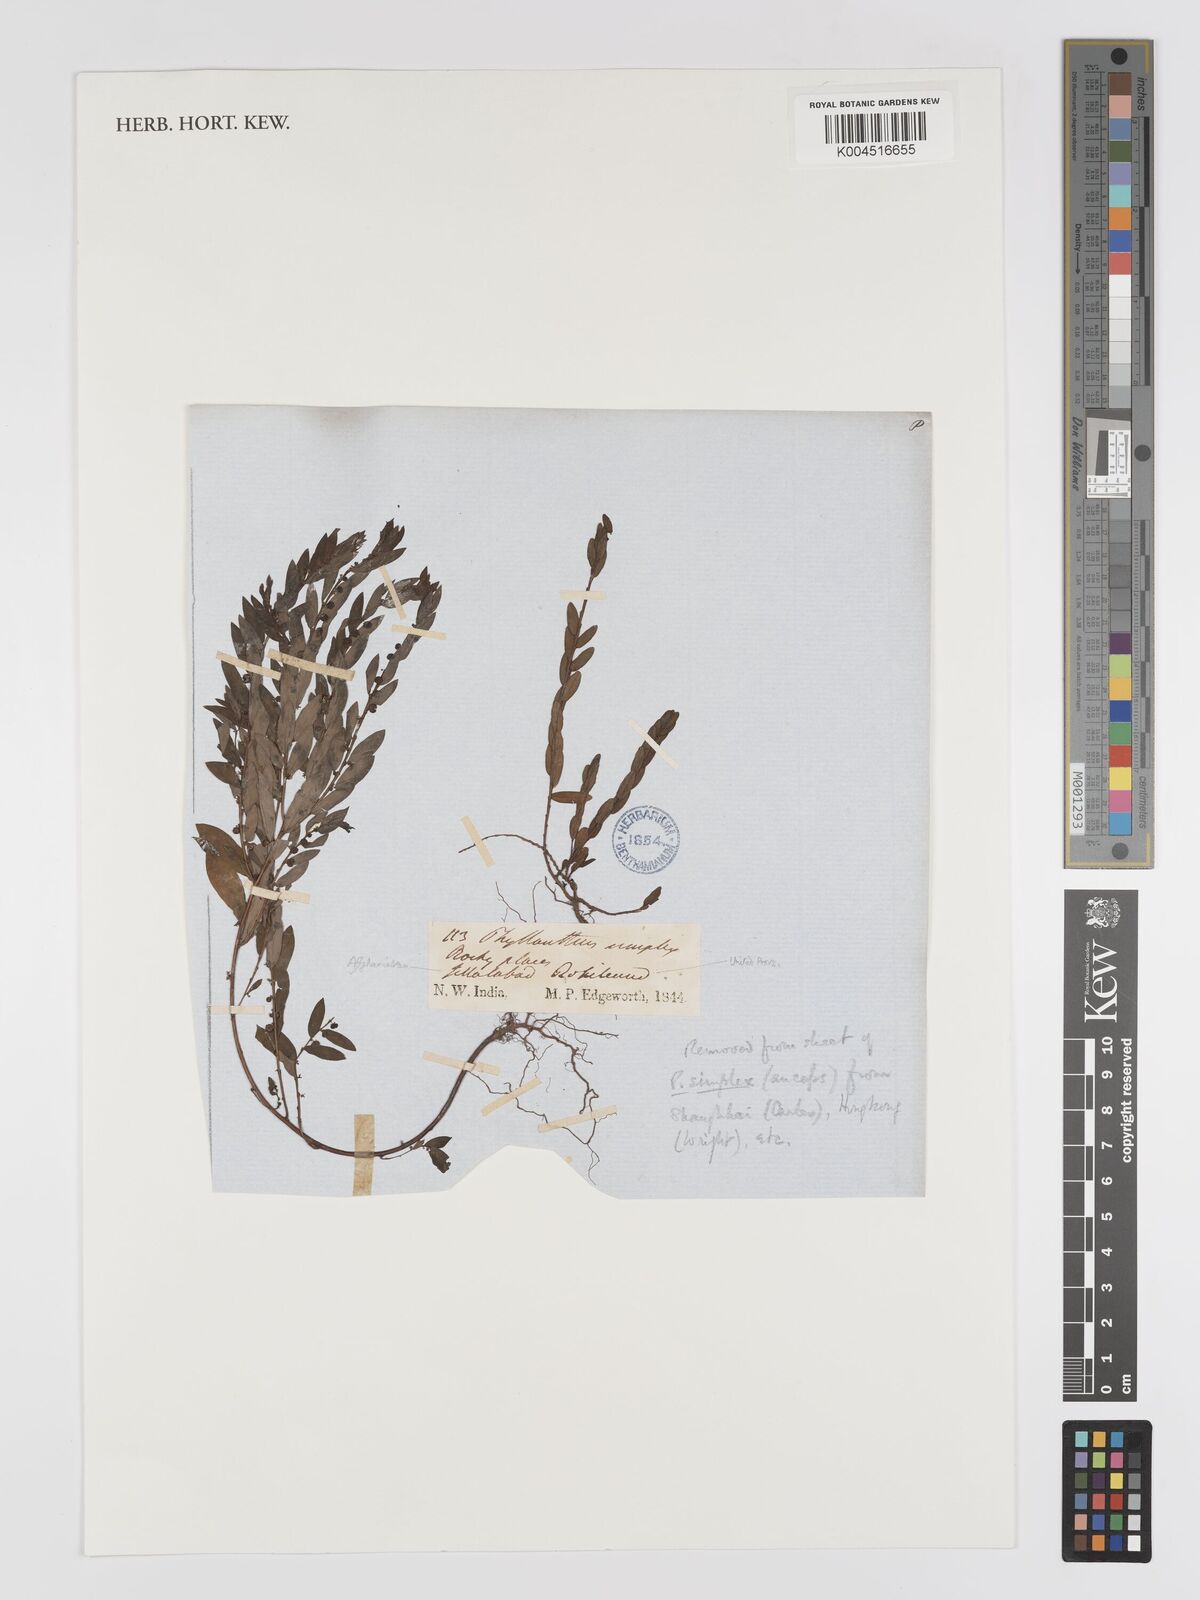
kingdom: Plantae
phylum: Tracheophyta
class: Magnoliopsida
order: Malpighiales
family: Phyllanthaceae
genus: Phyllanthus
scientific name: Phyllanthus virgatus
